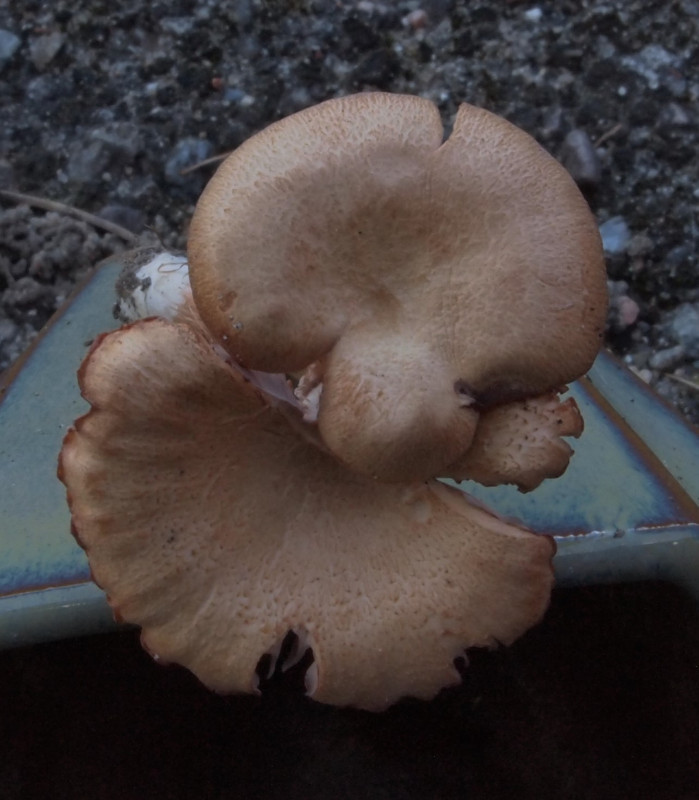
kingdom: Fungi
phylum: Basidiomycota
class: Agaricomycetes
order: Agaricales
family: Hydnangiaceae
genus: Laccaria
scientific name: Laccaria proxima
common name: stor ametysthat
